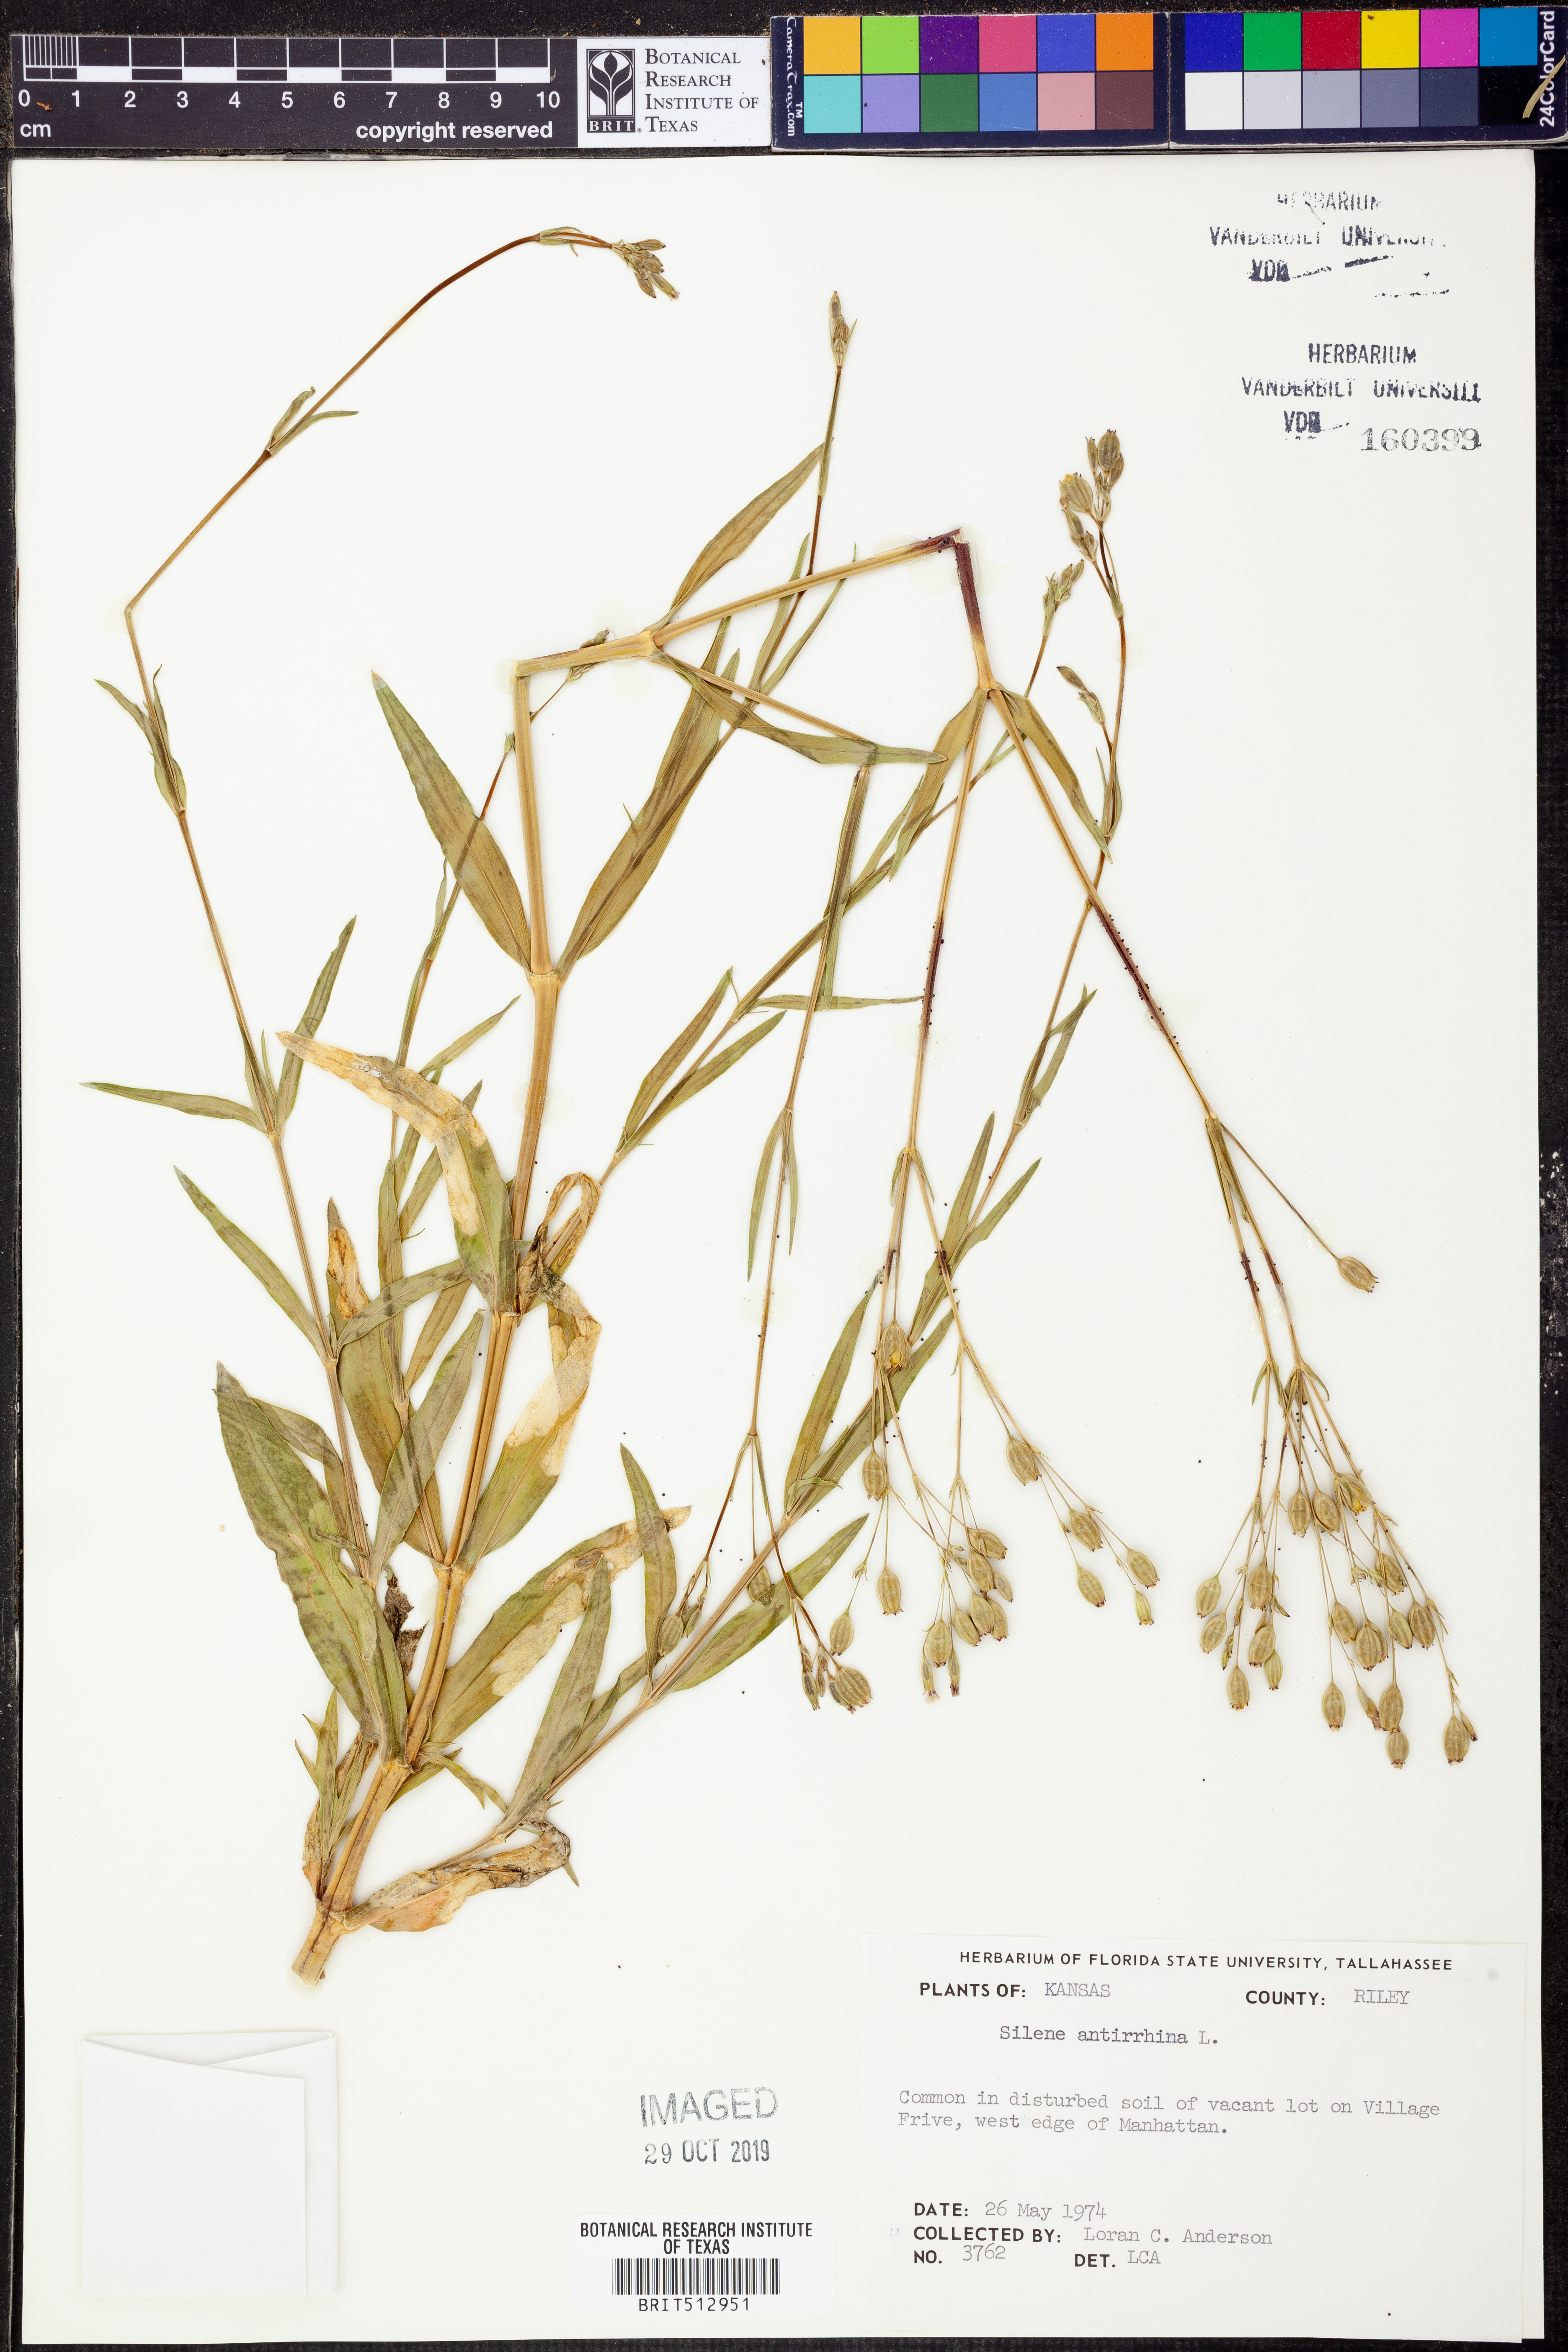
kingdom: Plantae
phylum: Tracheophyta
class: Magnoliopsida
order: Caryophyllales
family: Caryophyllaceae
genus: Silene
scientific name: Silene antirrhina
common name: Sleepy catchfly
